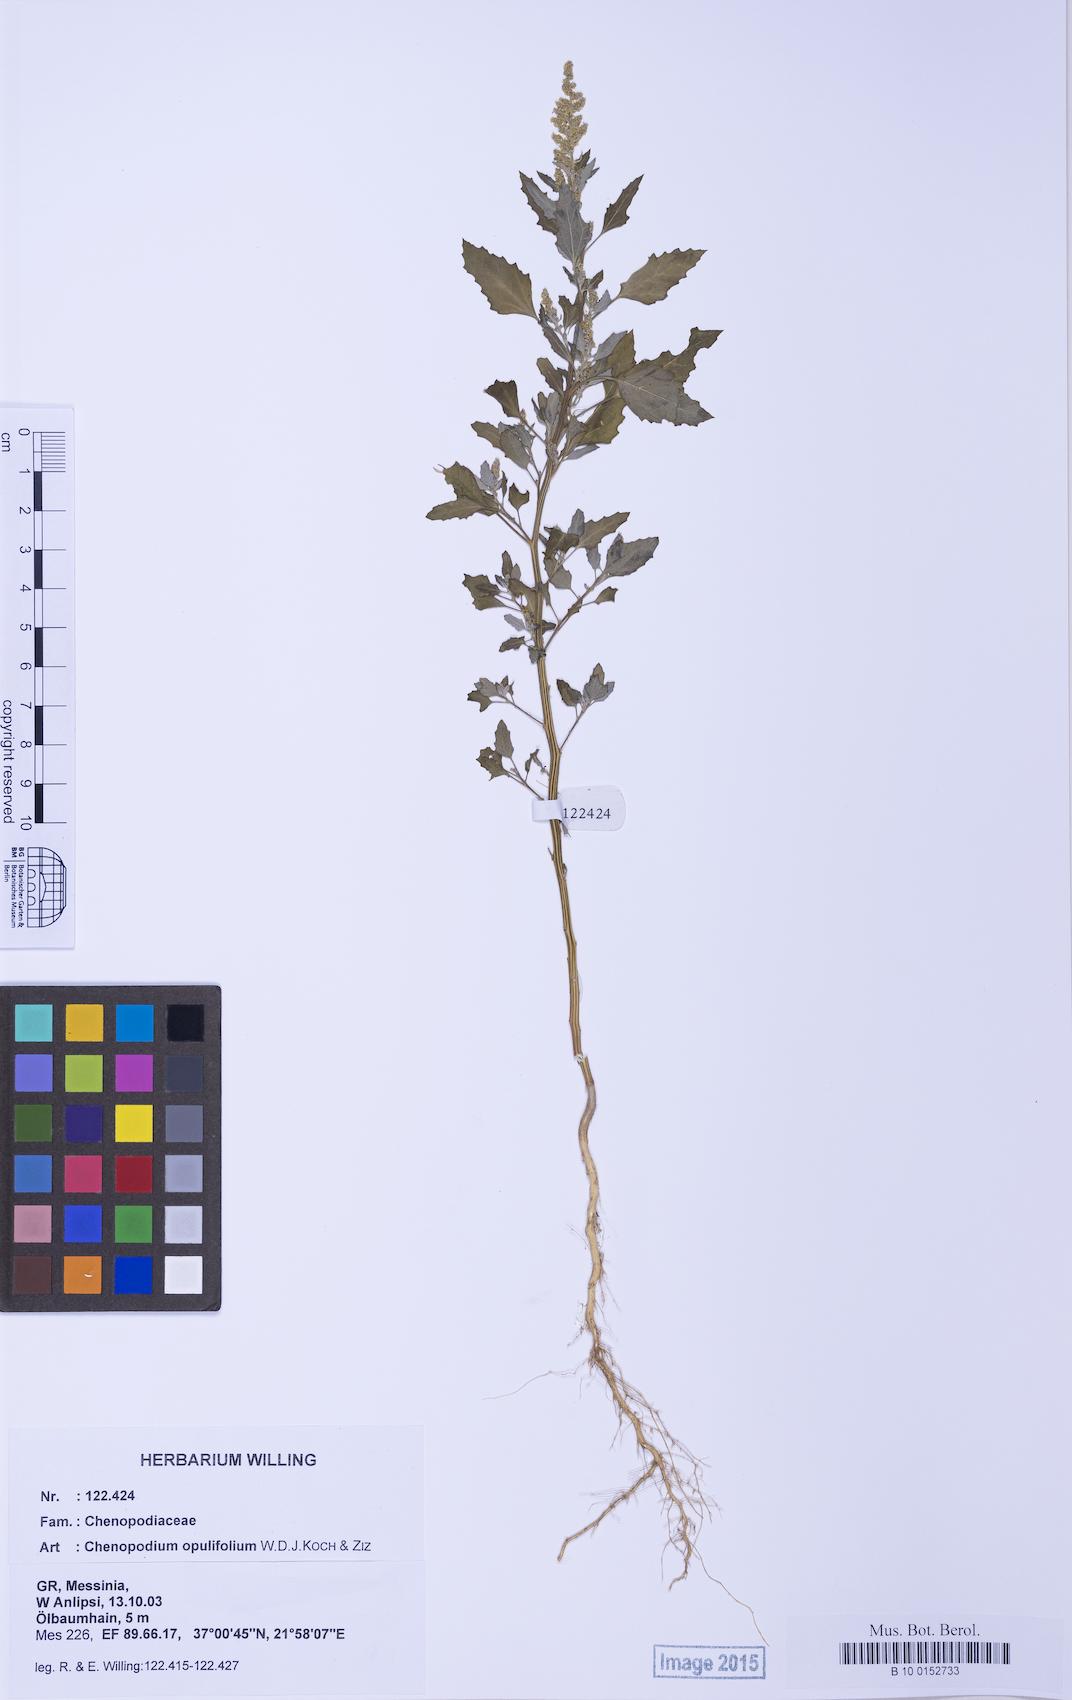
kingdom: Plantae
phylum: Tracheophyta
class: Magnoliopsida
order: Caryophyllales
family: Amaranthaceae
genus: Chenopodium
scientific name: Chenopodium album
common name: Fat-hen
